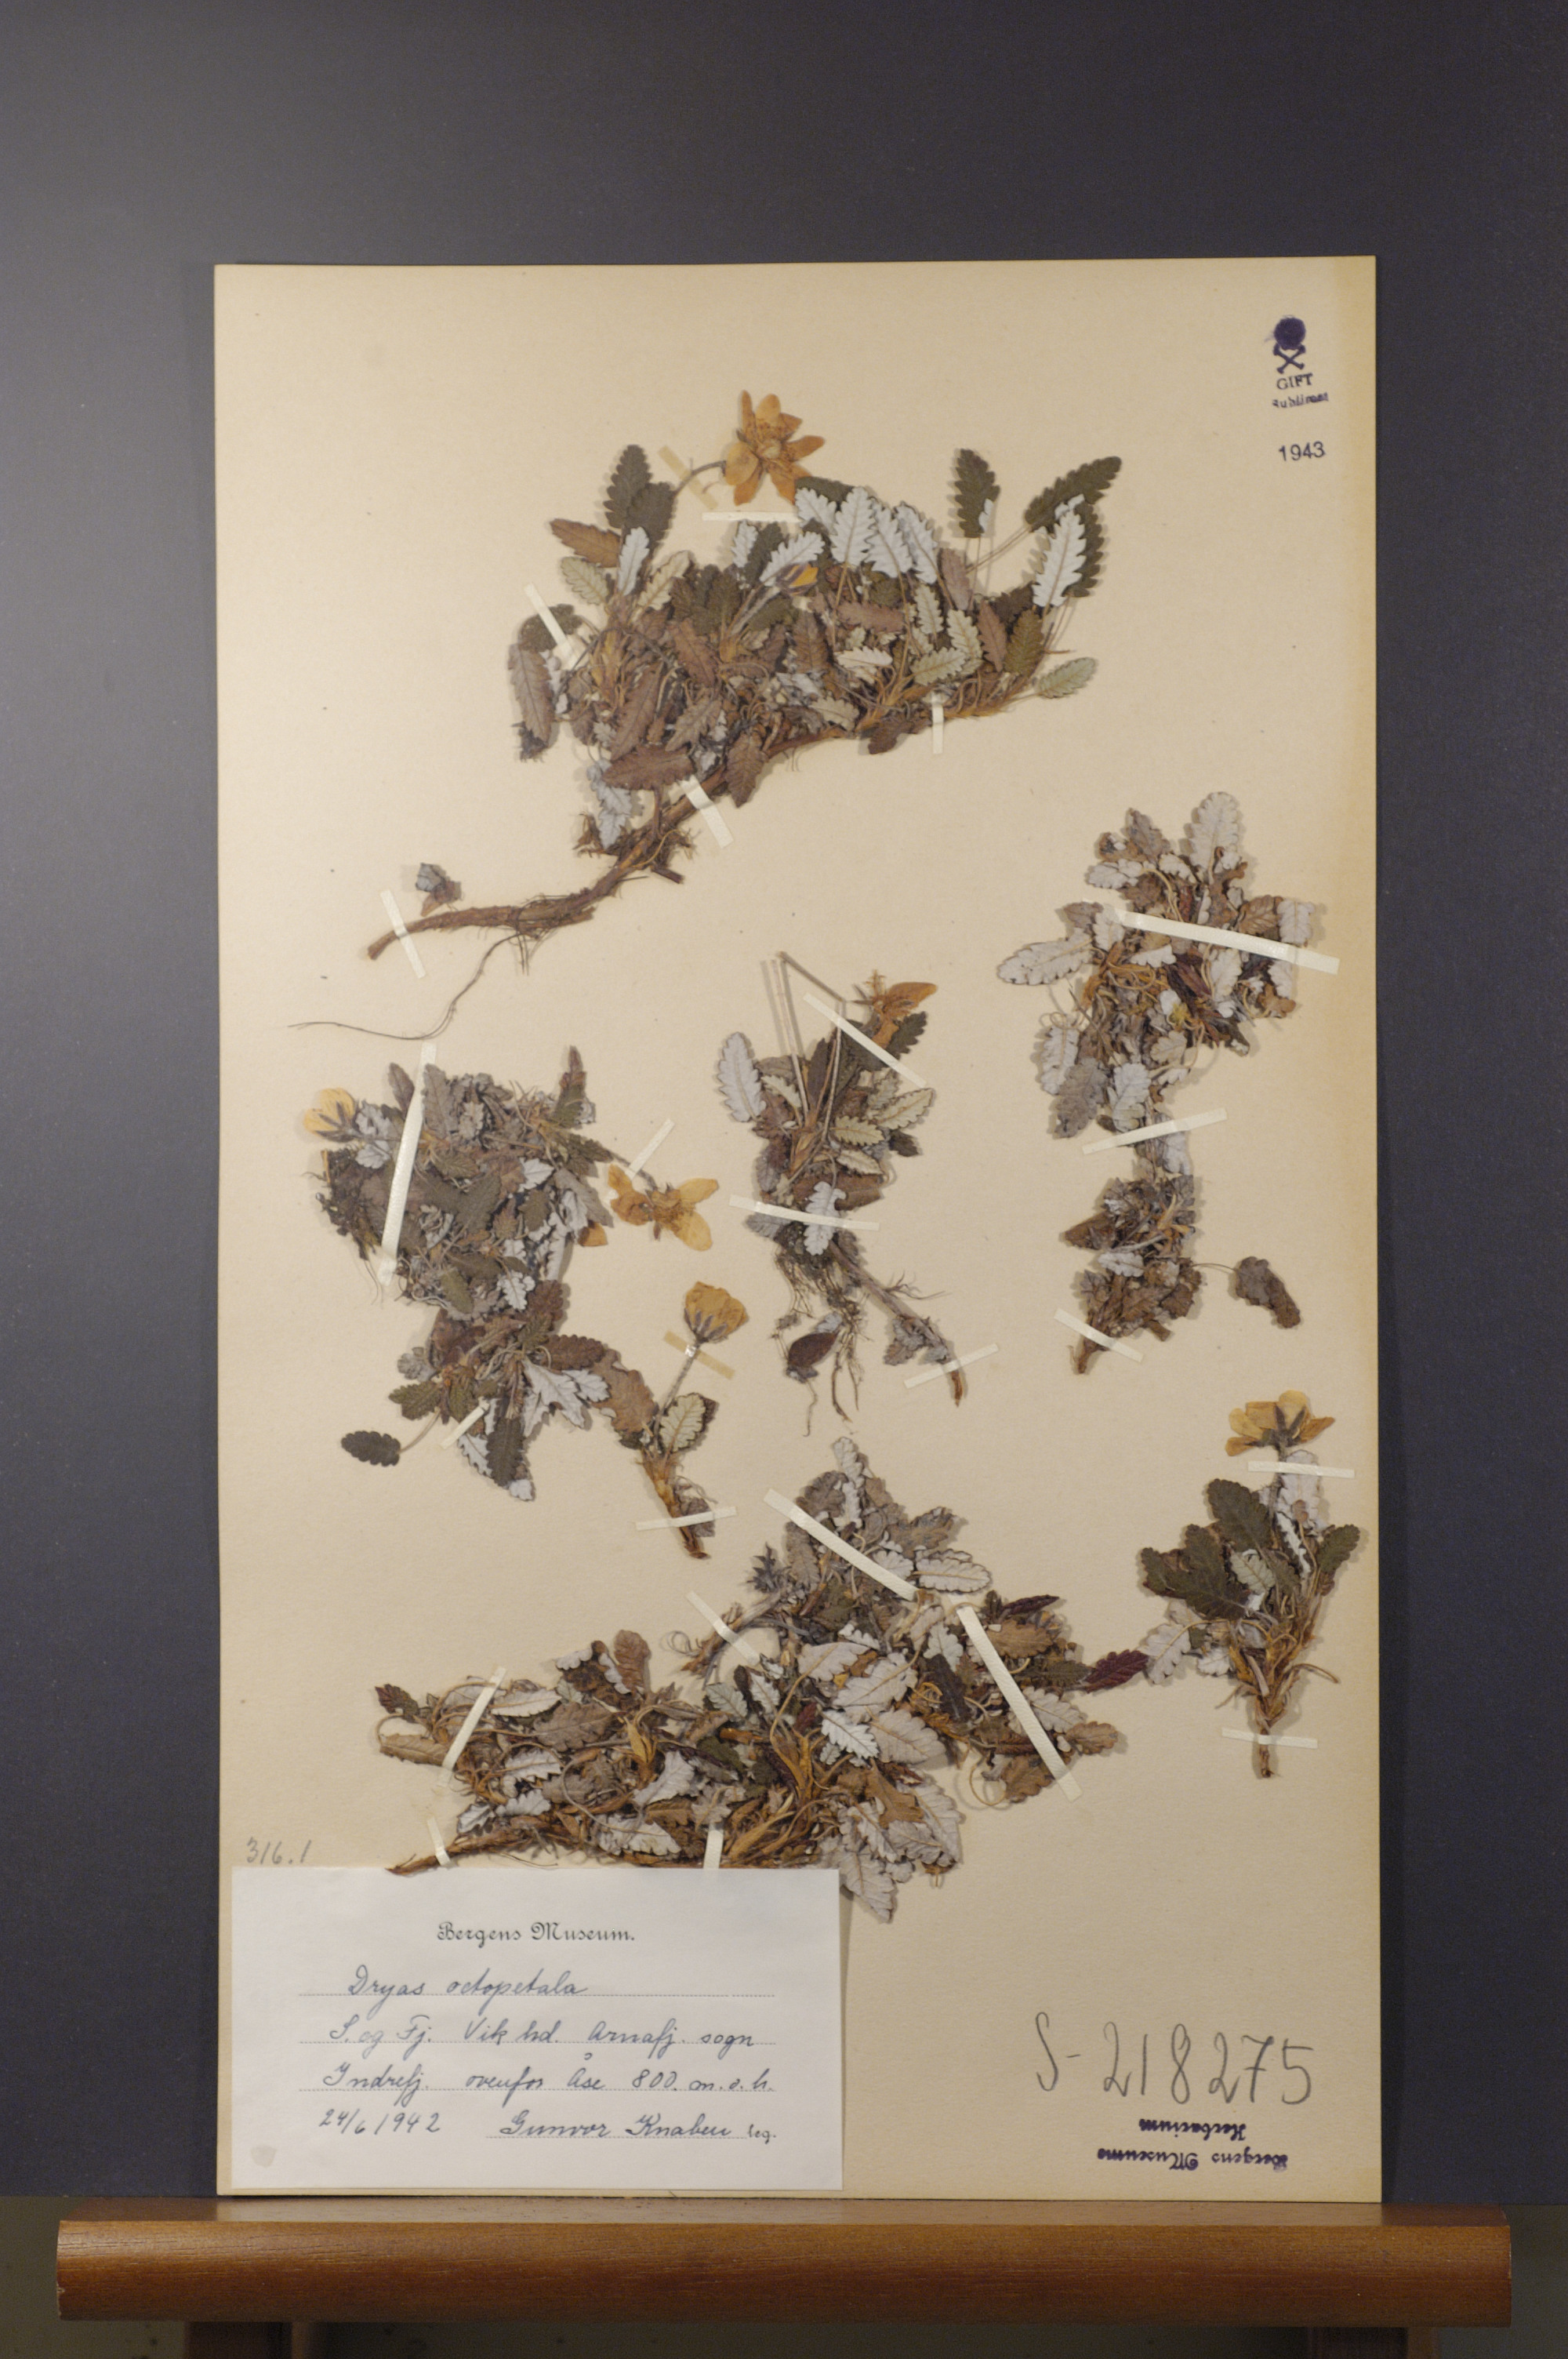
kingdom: Plantae
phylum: Tracheophyta
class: Magnoliopsida
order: Rosales
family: Rosaceae
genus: Dryas
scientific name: Dryas octopetala
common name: Eight-petal mountain-avens
